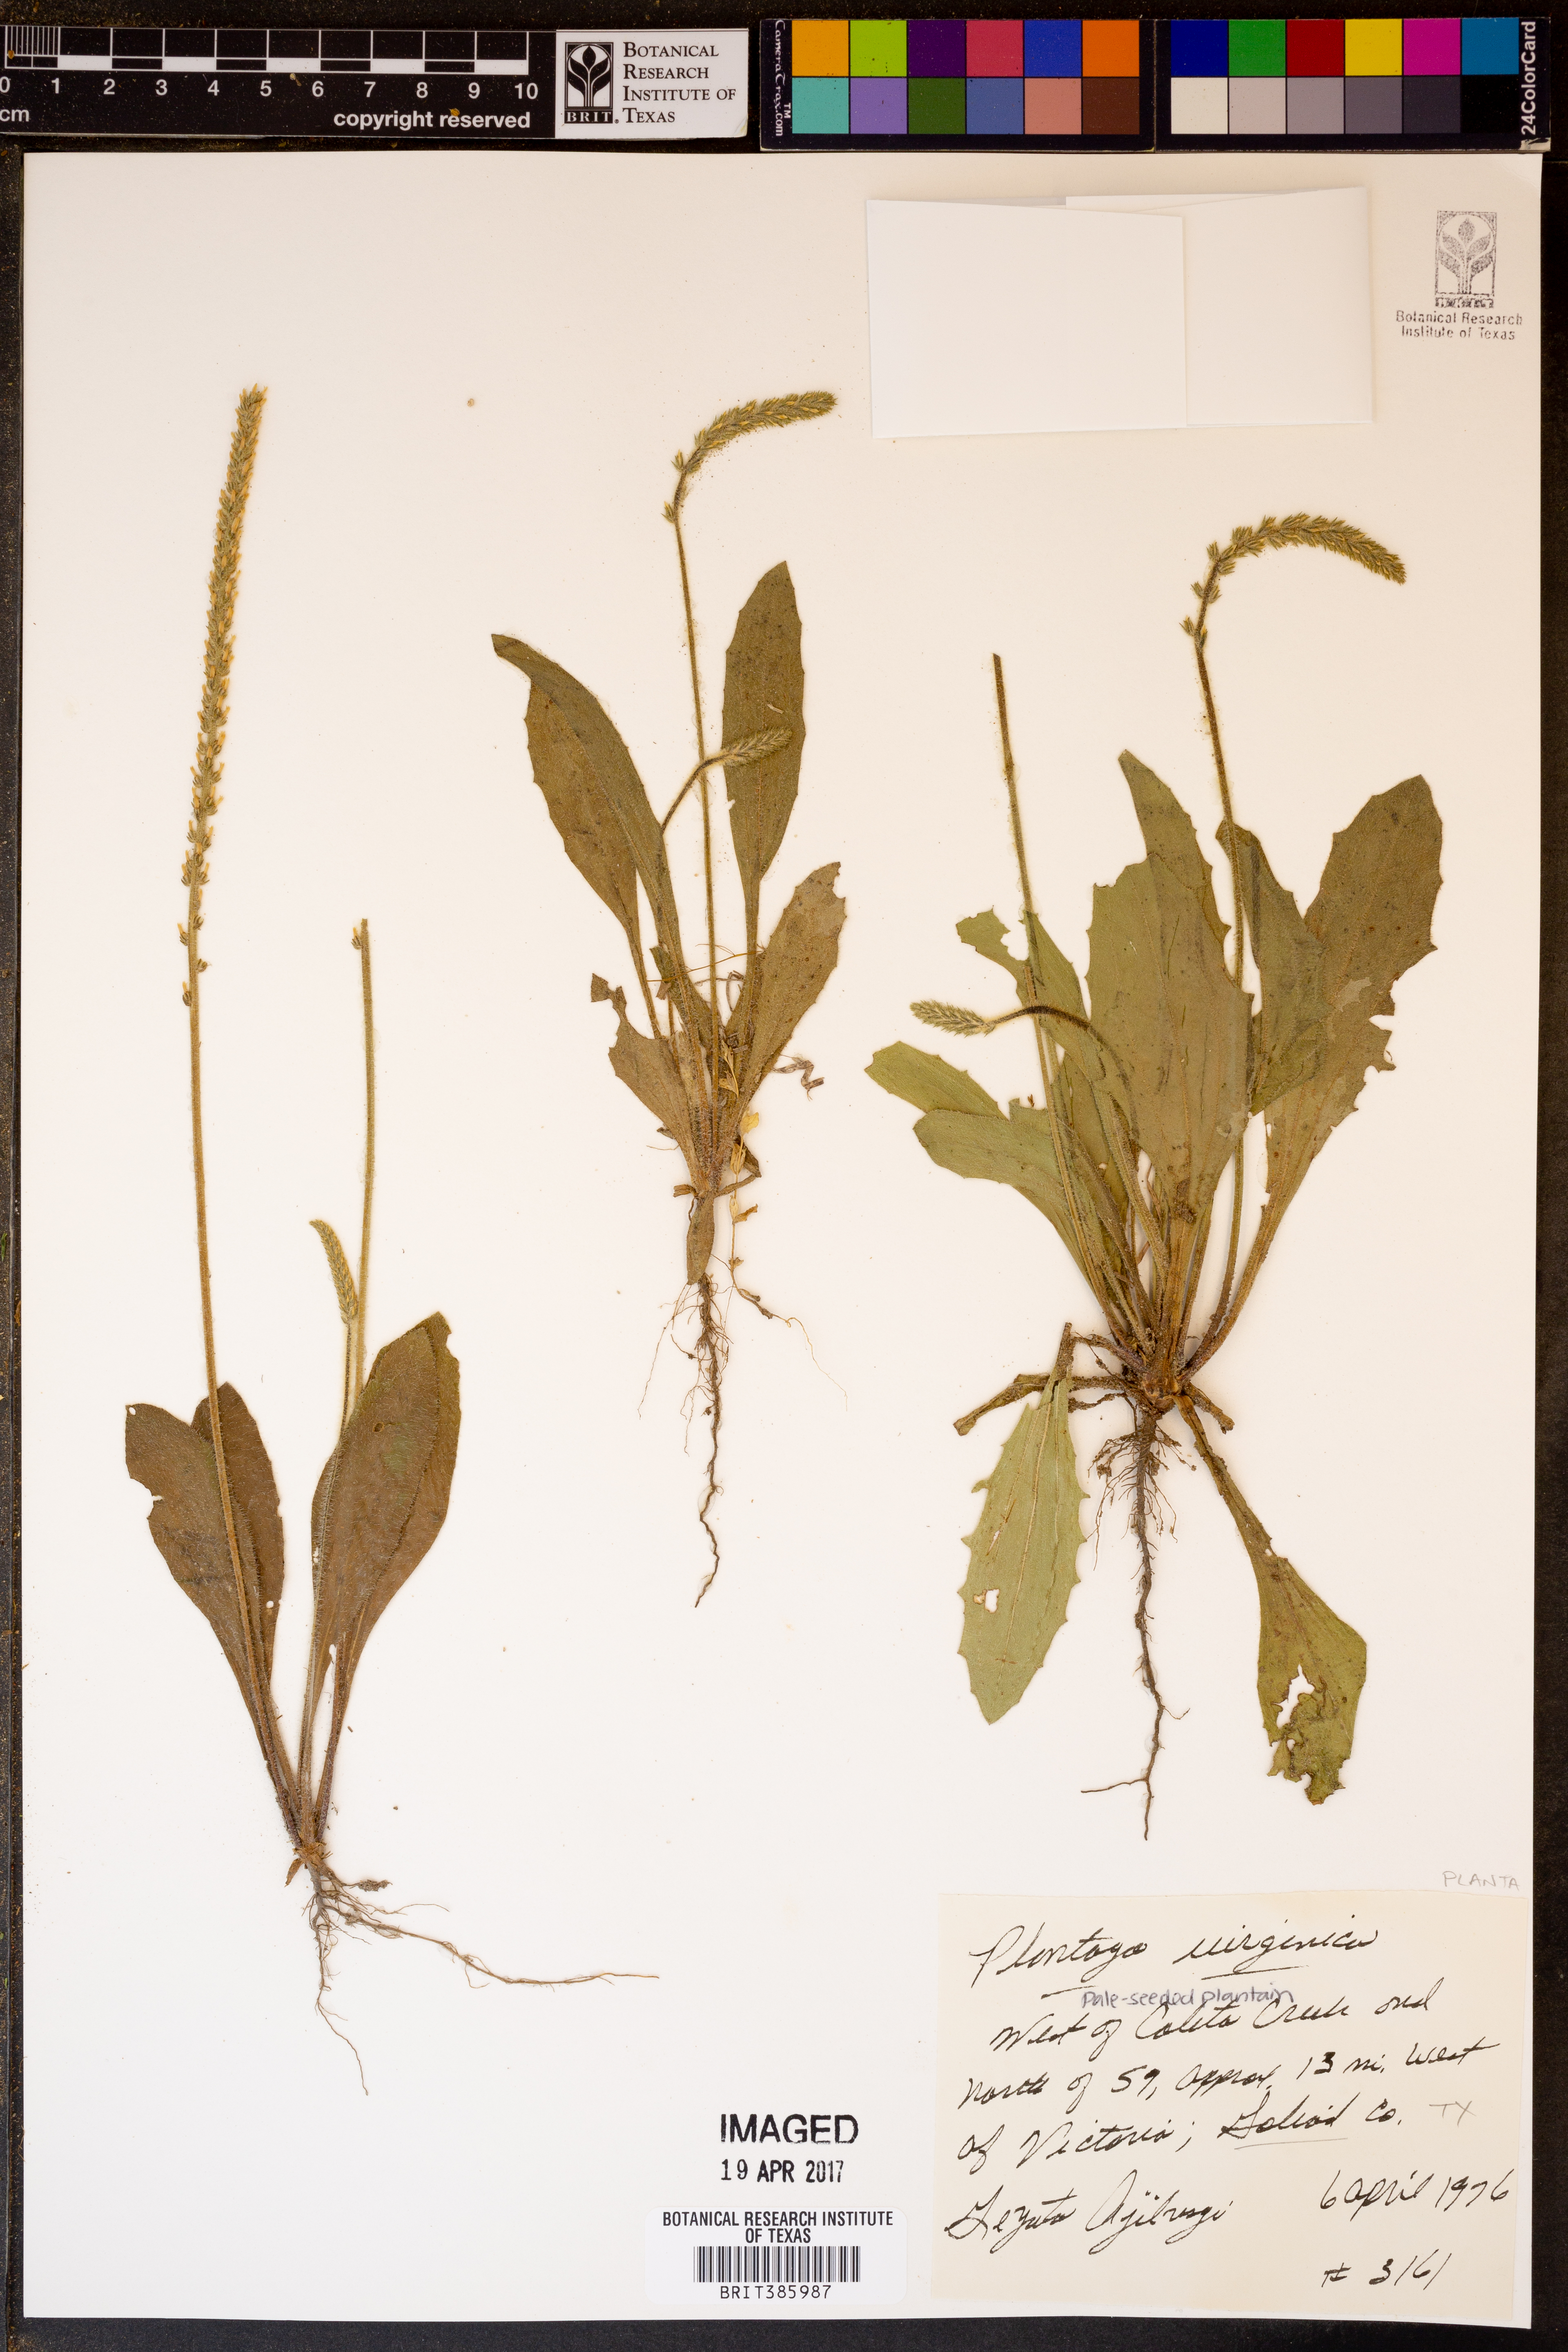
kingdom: Plantae
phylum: Tracheophyta
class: Magnoliopsida
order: Lamiales
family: Plantaginaceae
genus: Plantago
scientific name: Plantago virginica
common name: Hoary plantain
